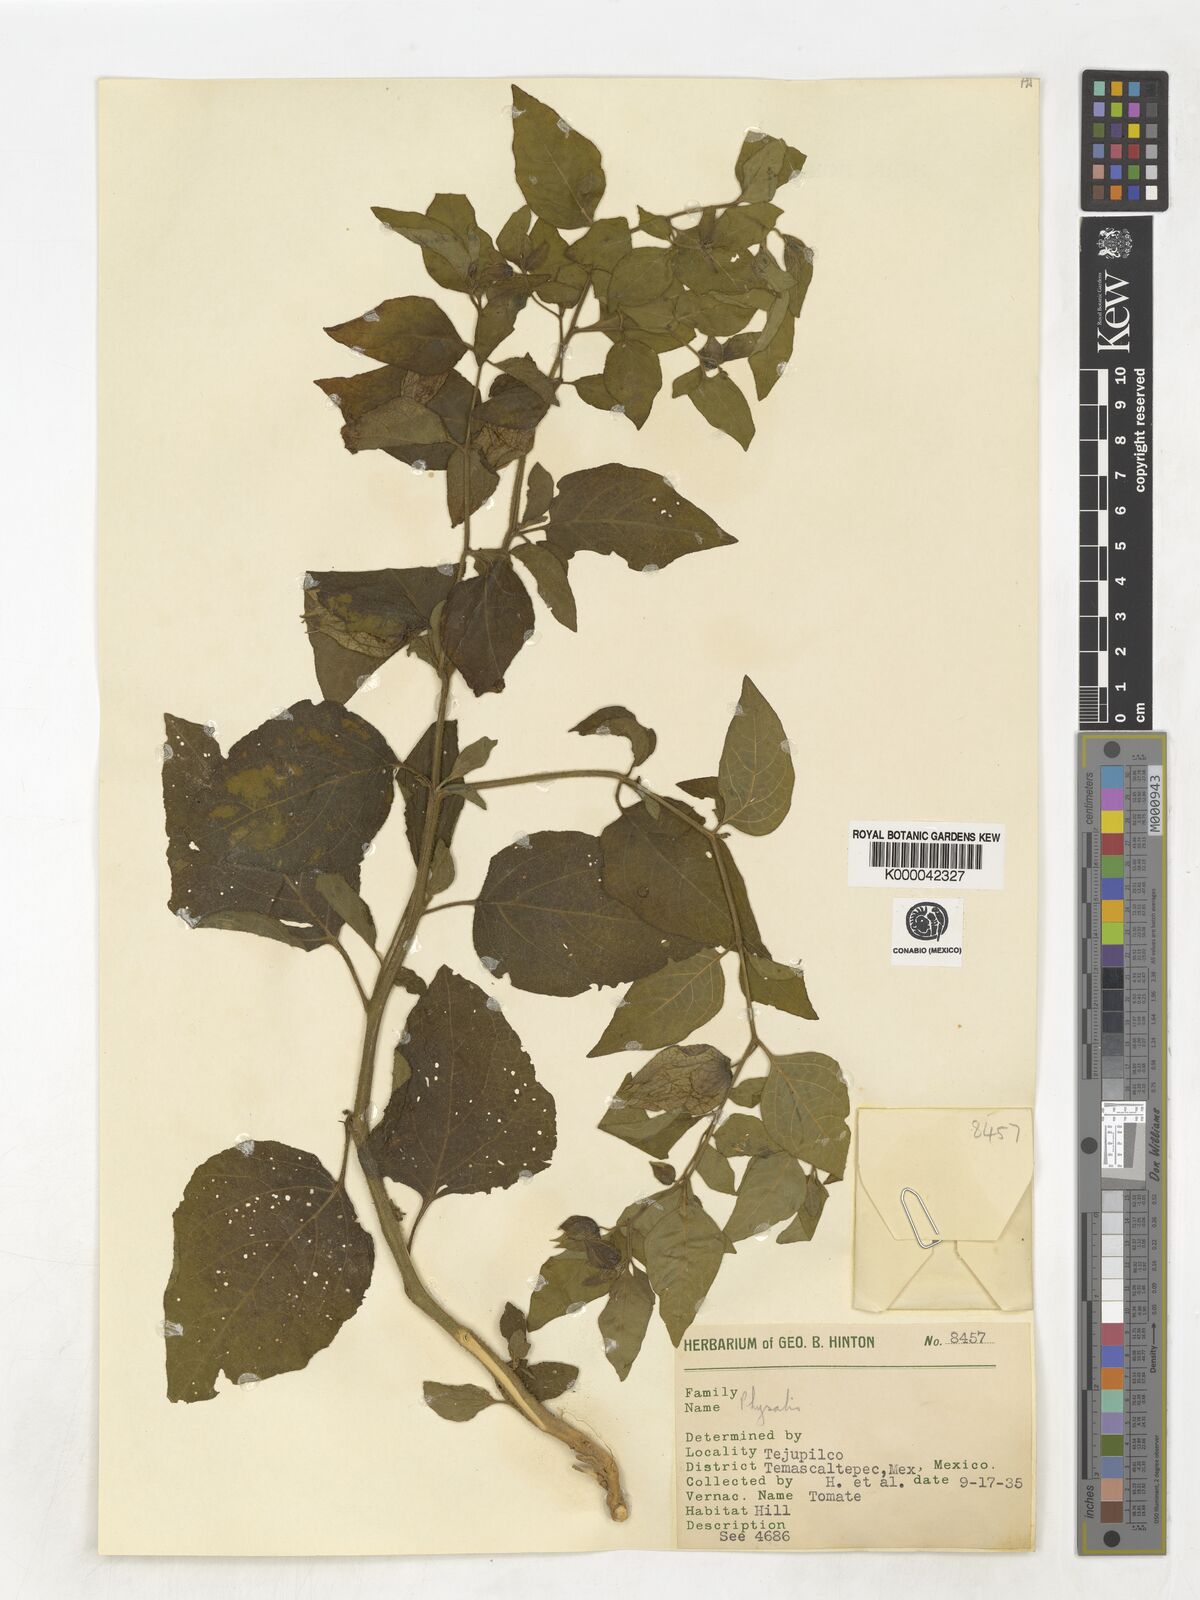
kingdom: Plantae
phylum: Tracheophyta
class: Magnoliopsida
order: Solanales
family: Solanaceae
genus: Physalis
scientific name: Physalis
